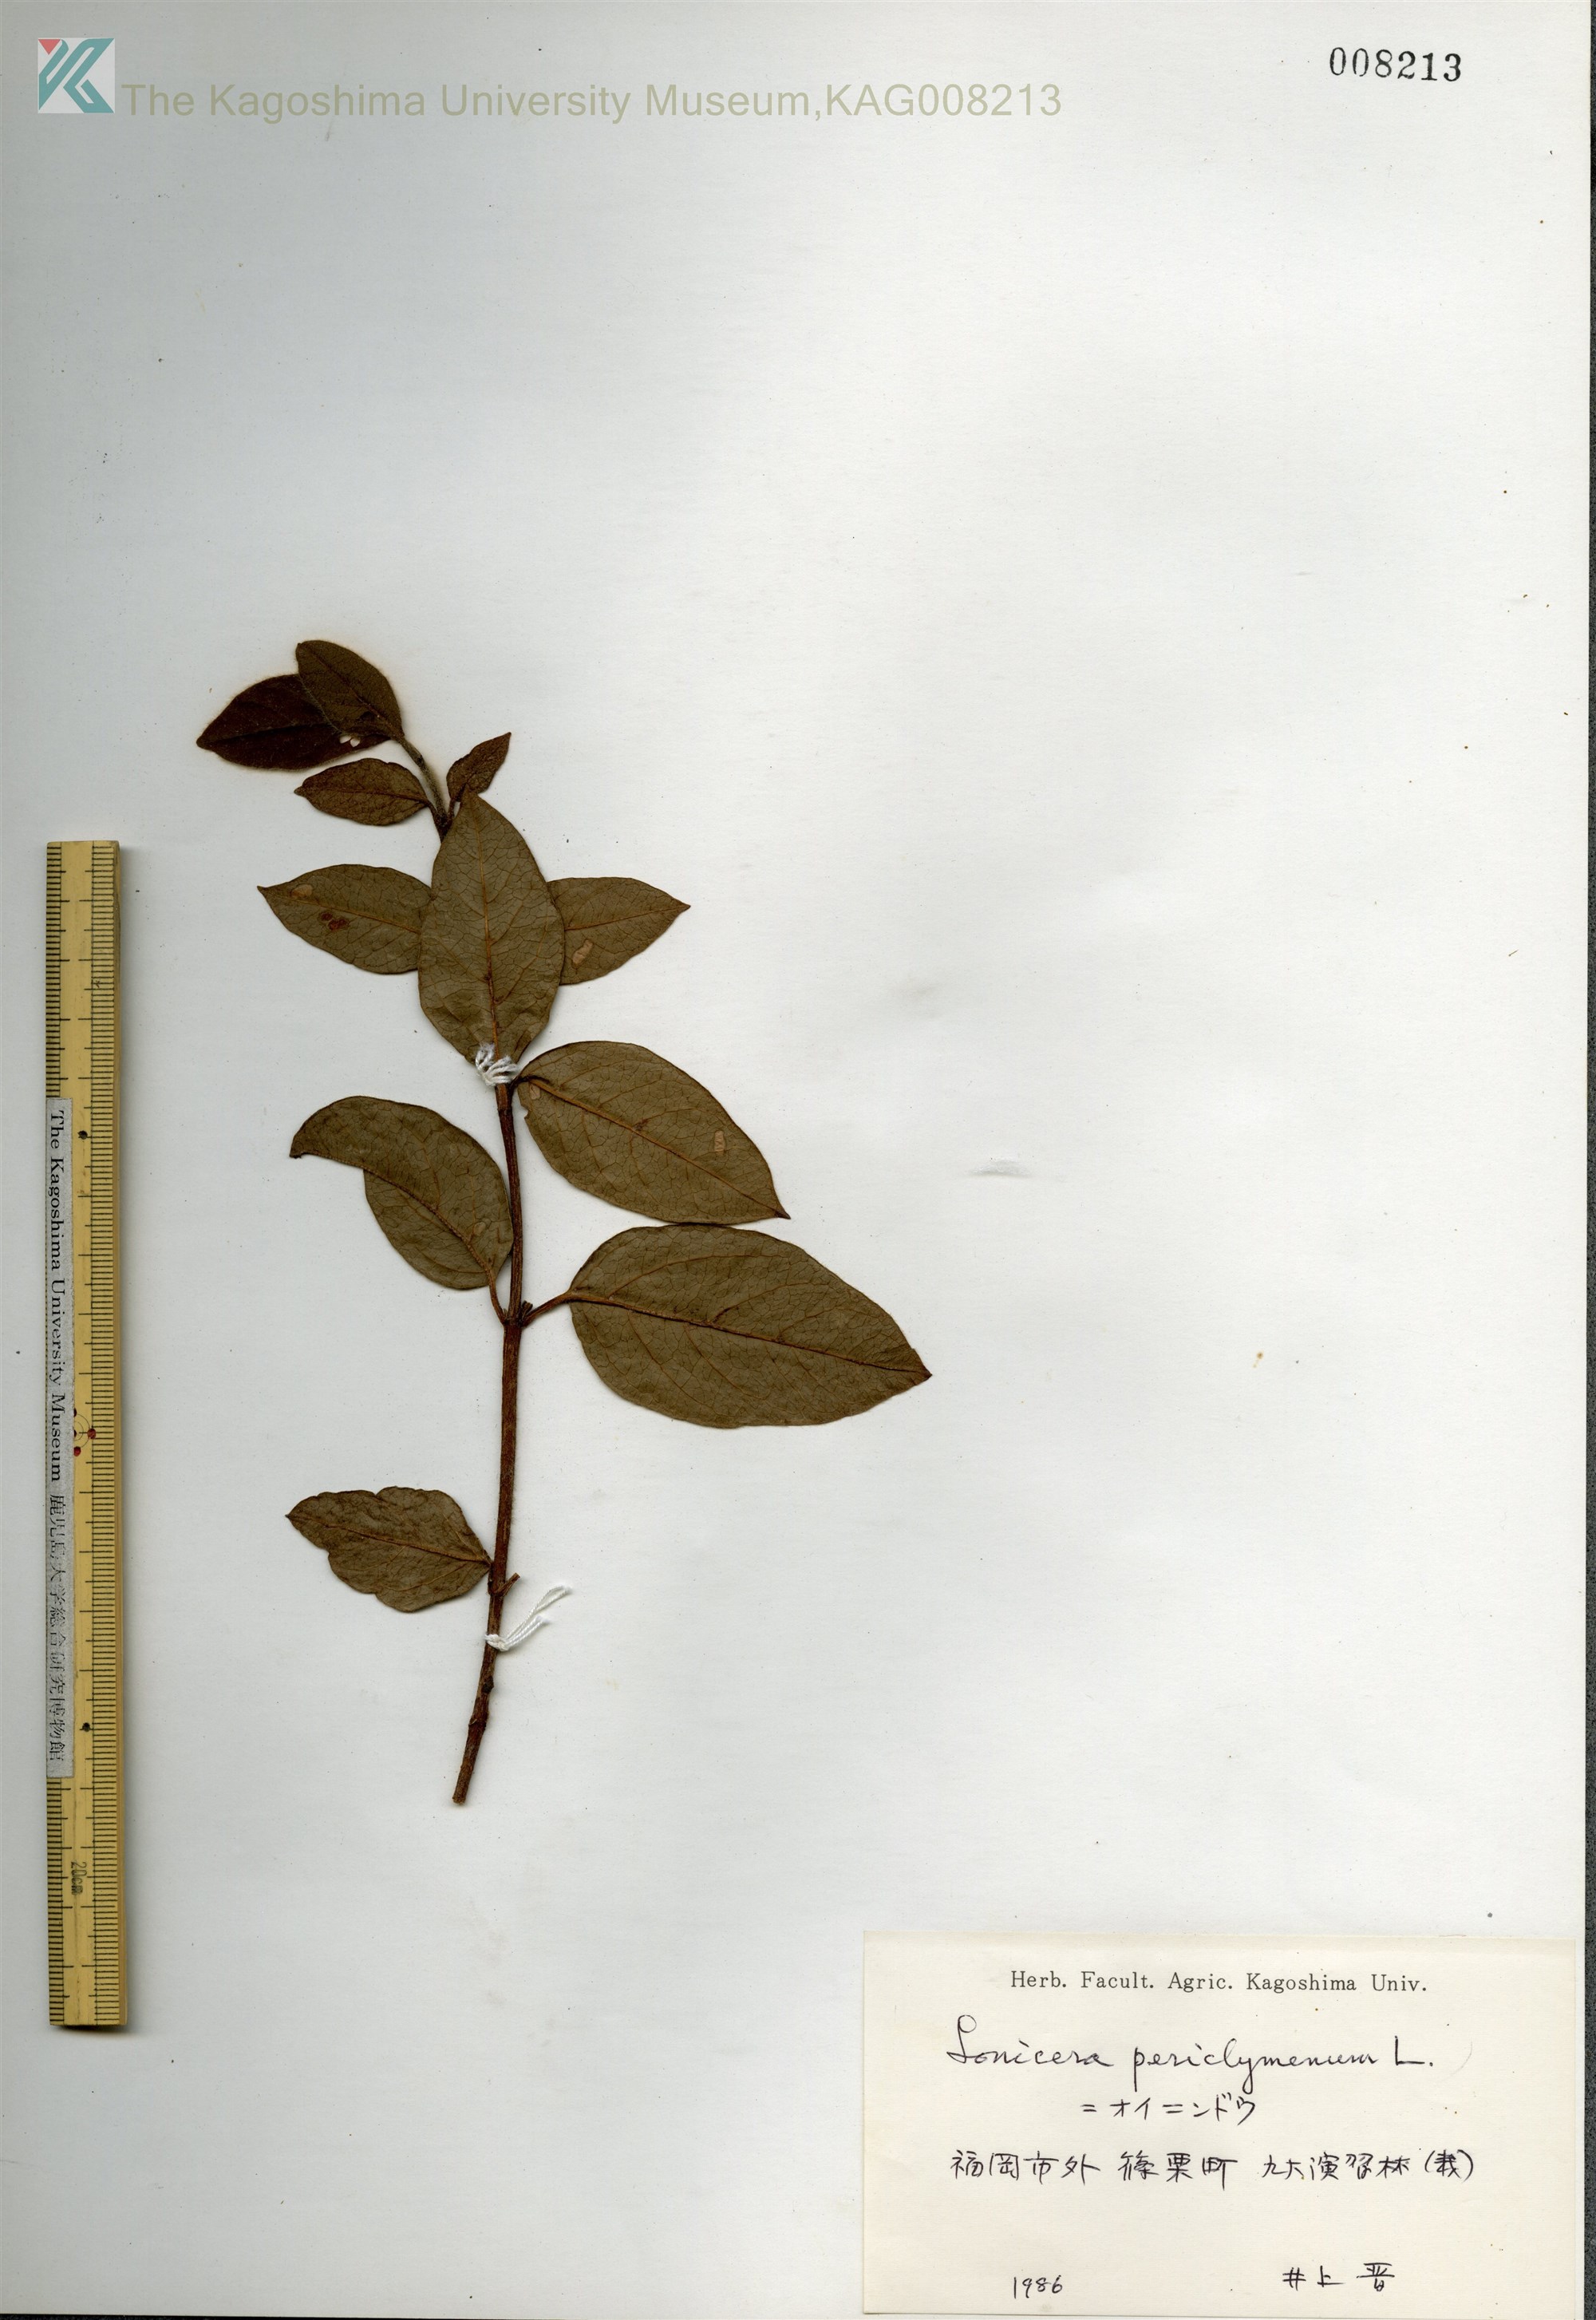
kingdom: Plantae
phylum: Tracheophyta
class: Magnoliopsida
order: Dipsacales
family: Caprifoliaceae
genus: Lonicera
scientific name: Lonicera periclymenum
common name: European honeysuckle
